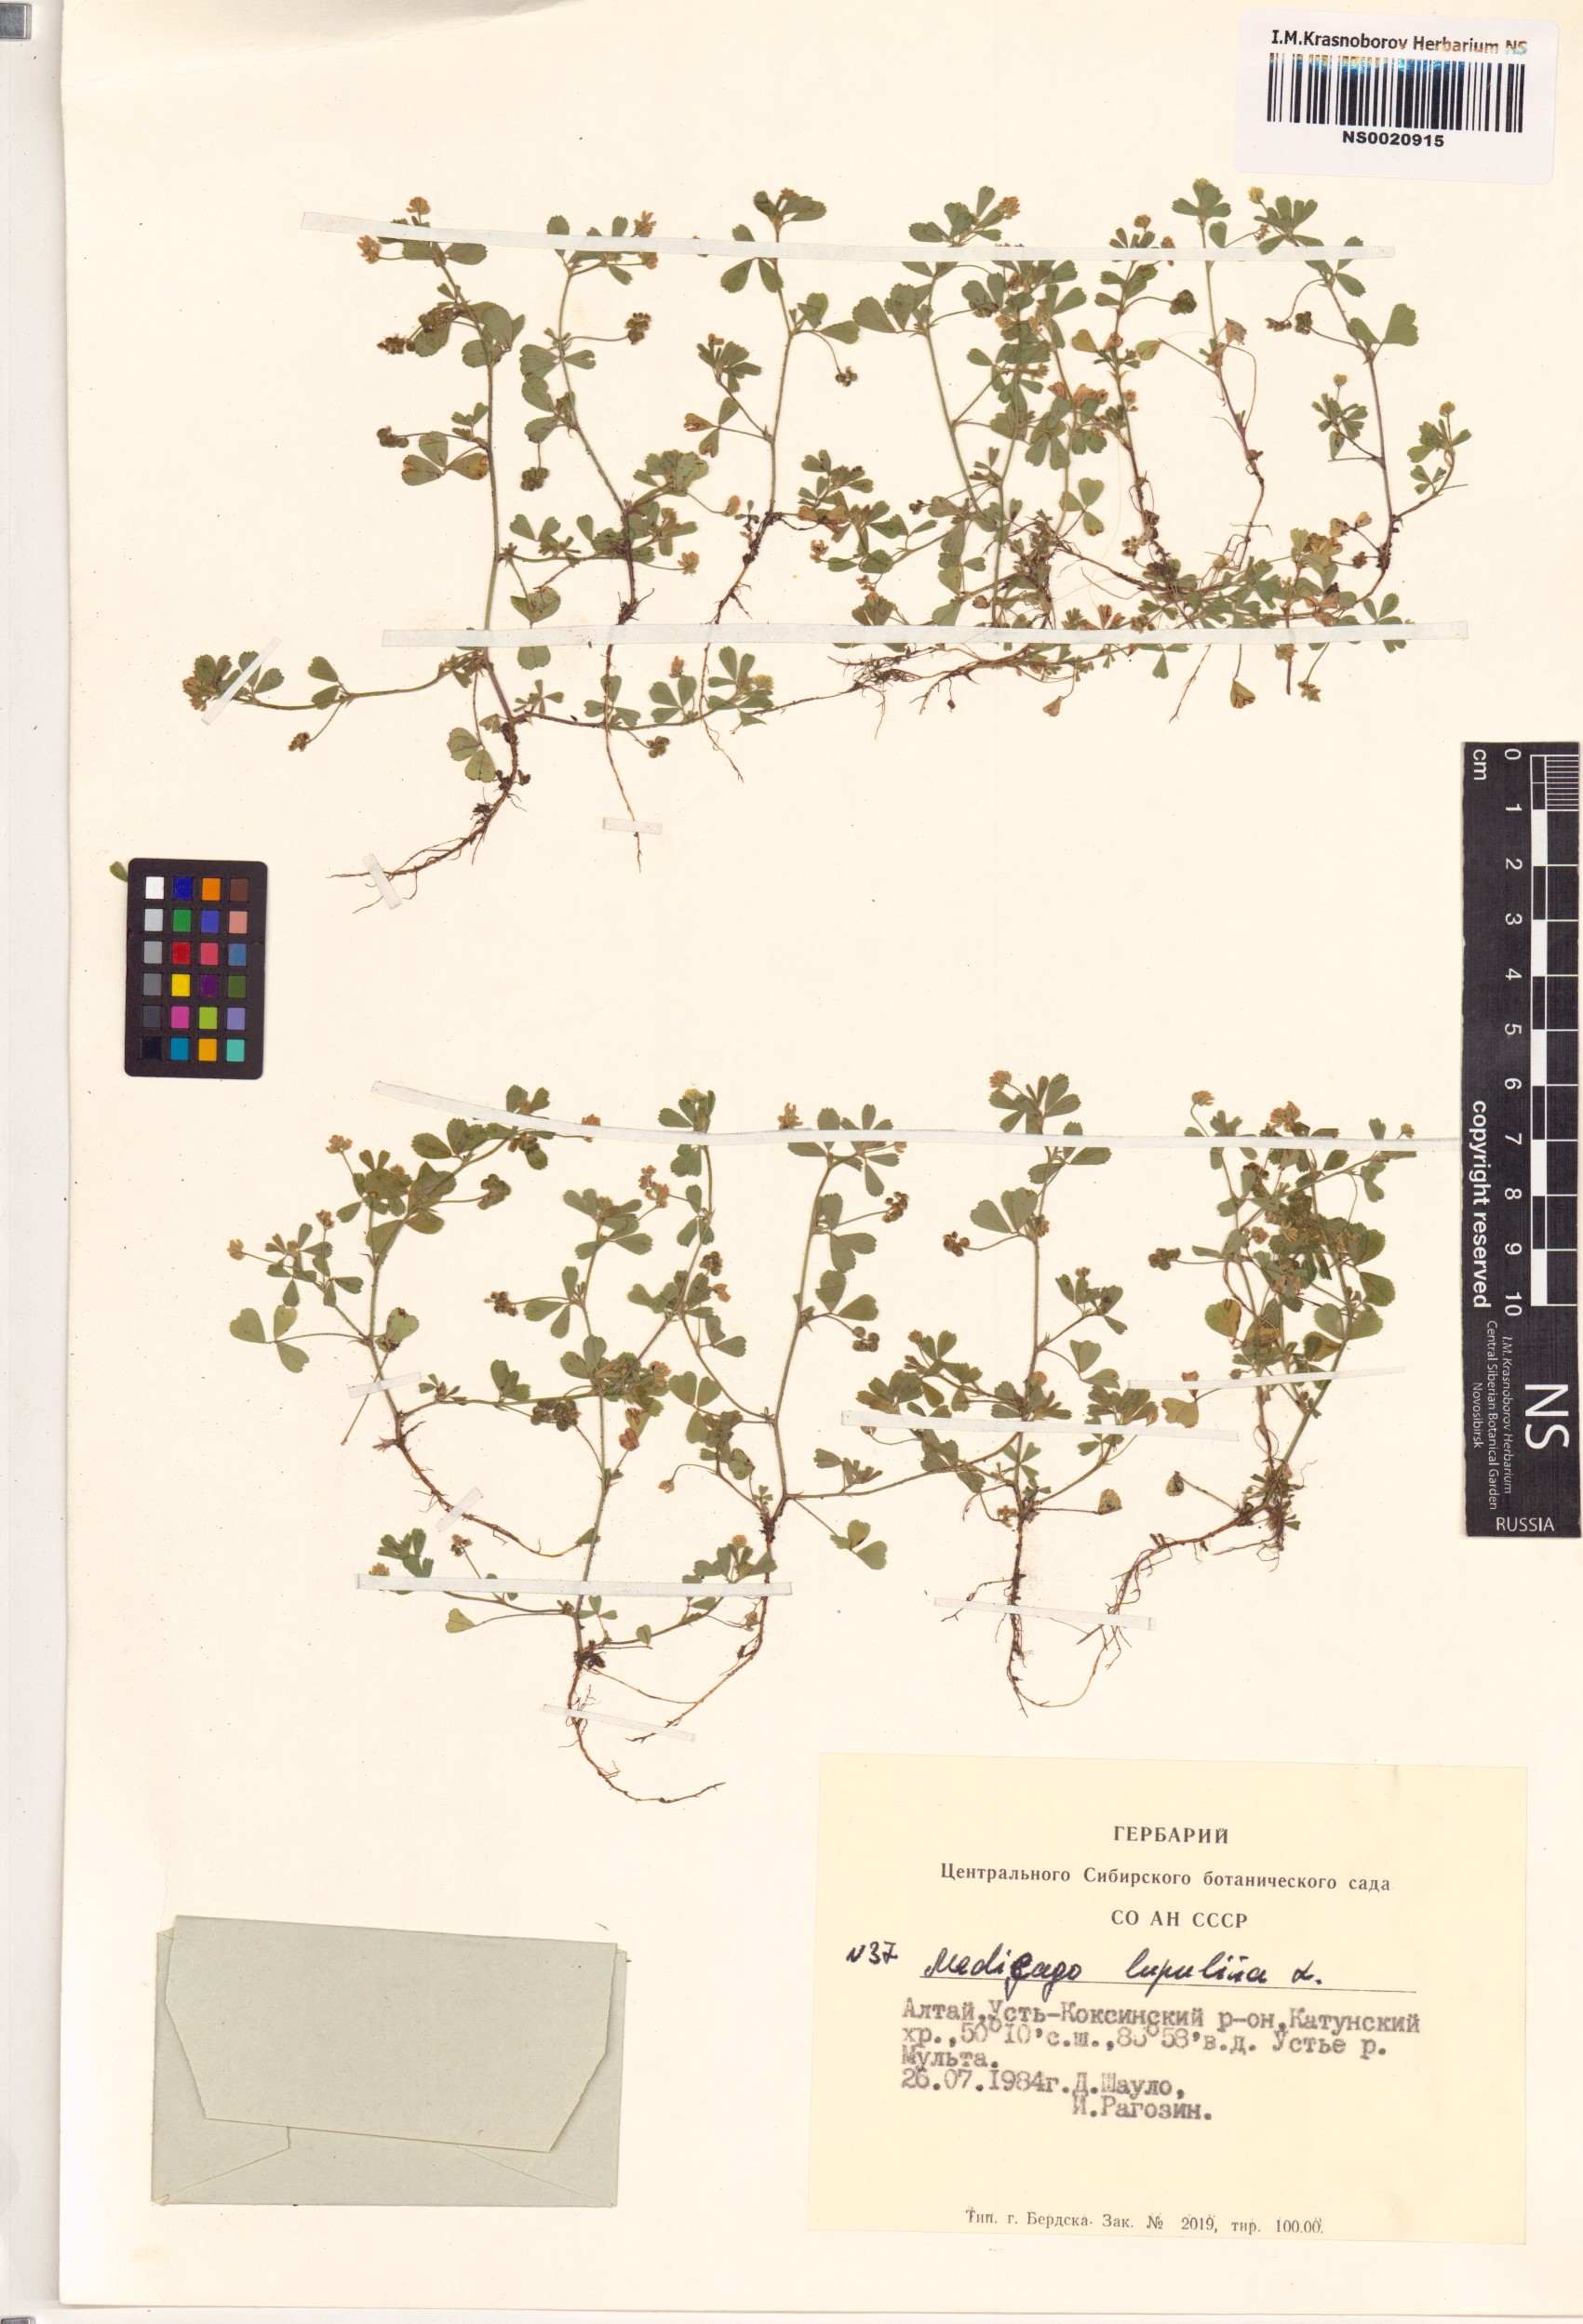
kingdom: Plantae
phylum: Tracheophyta
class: Magnoliopsida
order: Fabales
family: Fabaceae
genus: Medicago
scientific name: Medicago lupulina
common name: Black medick
